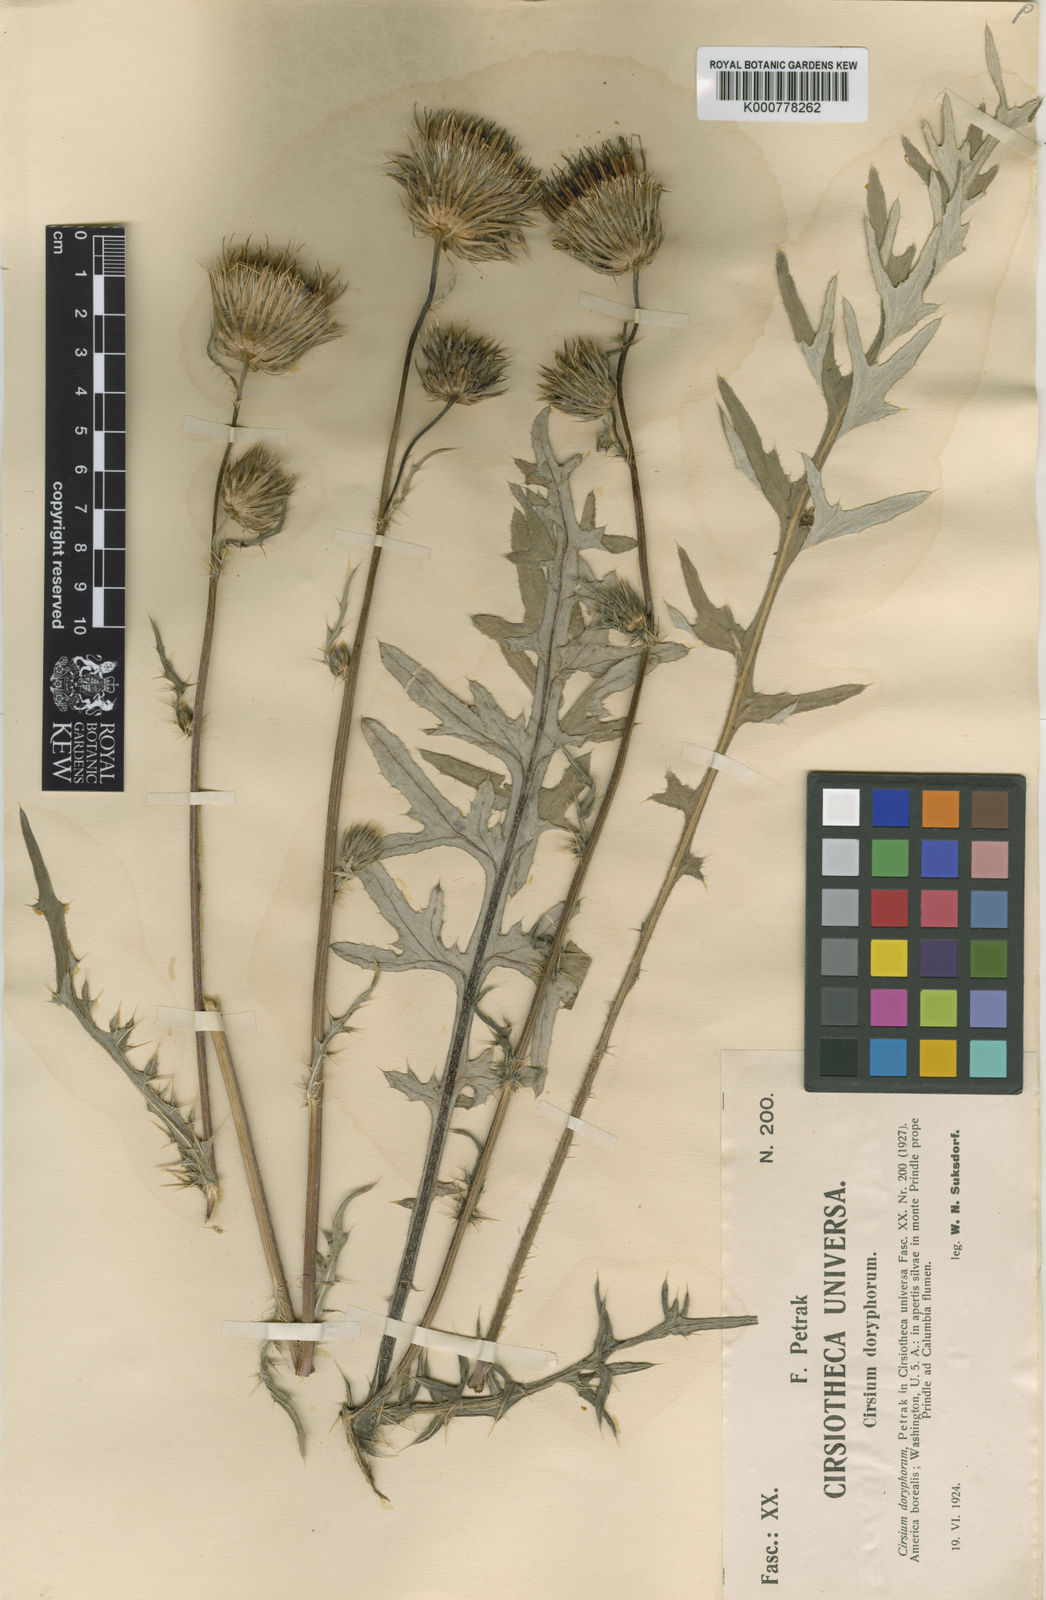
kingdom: Plantae
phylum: Tracheophyta
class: Magnoliopsida
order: Asterales
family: Asteraceae
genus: Cirsium
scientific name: Cirsium
